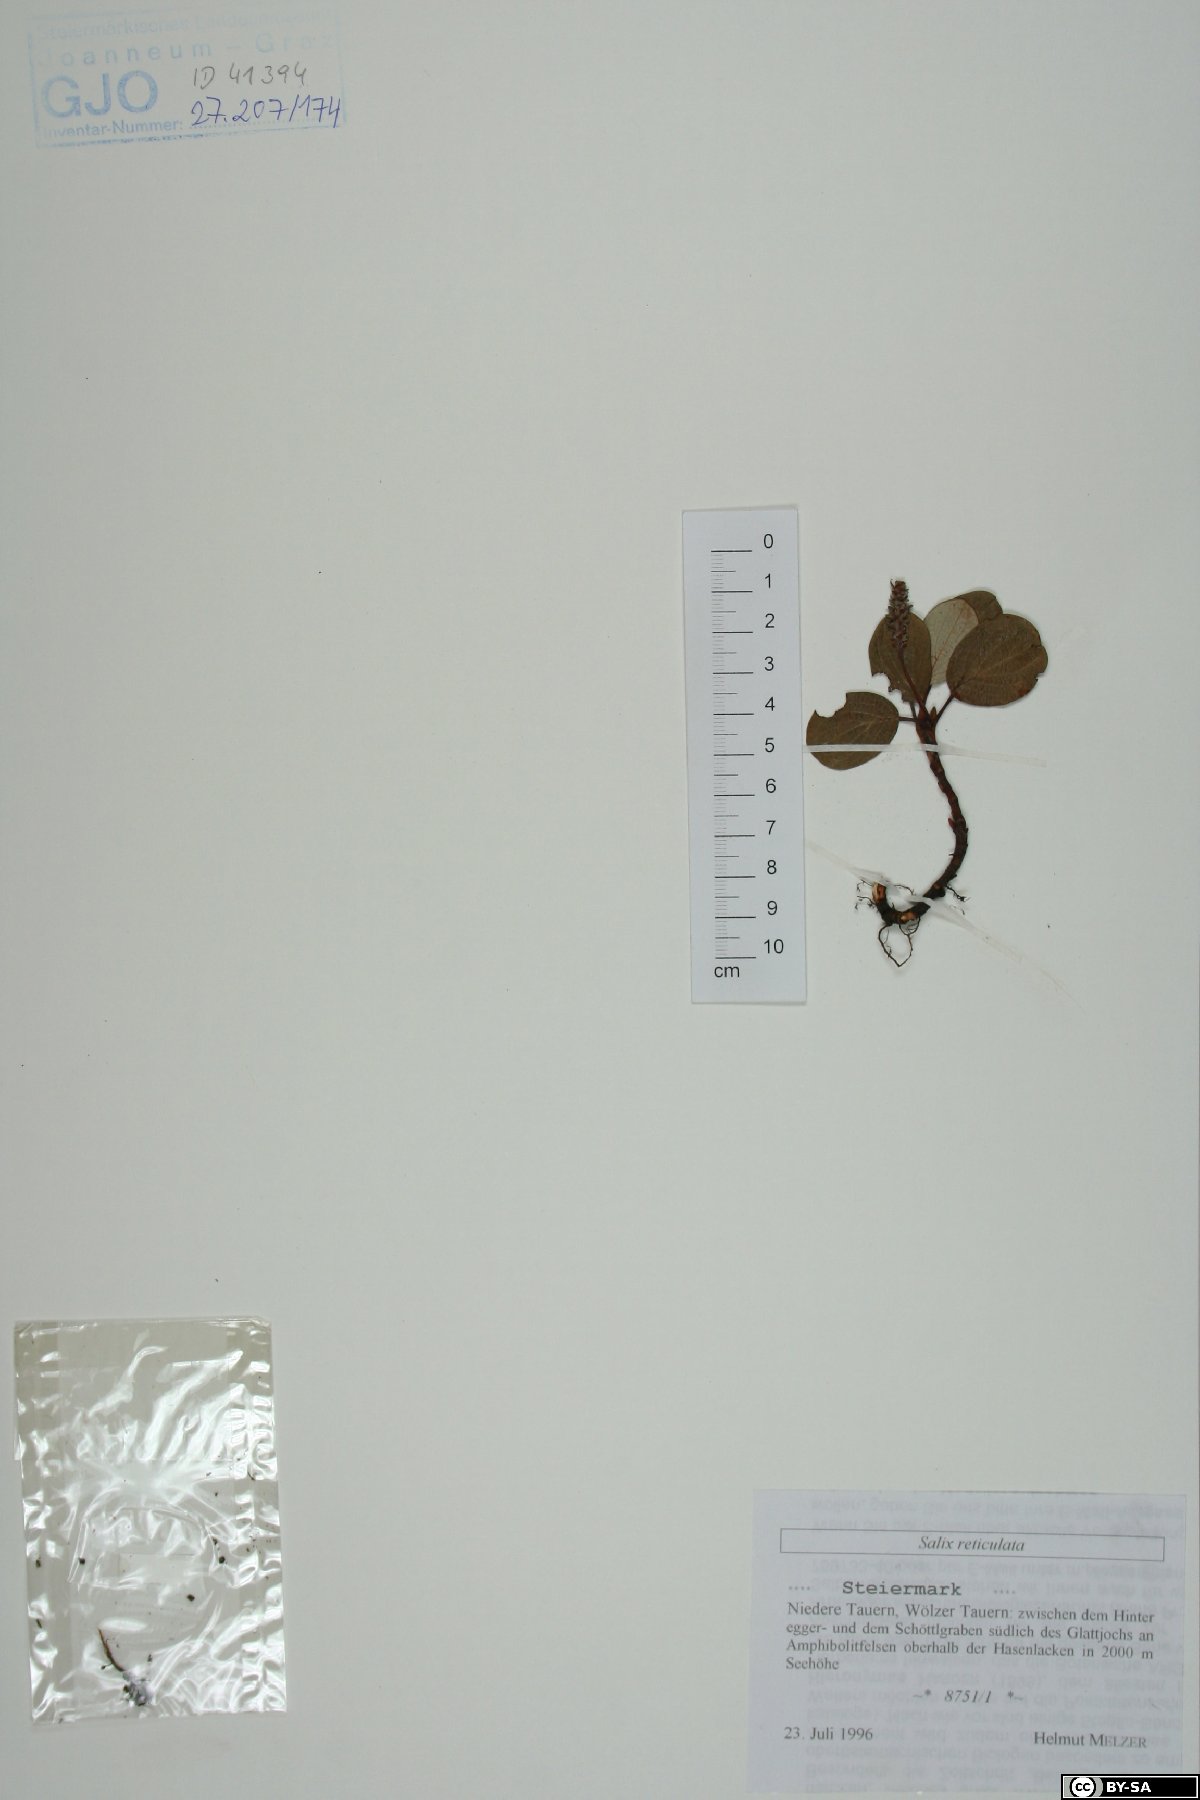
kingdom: Plantae
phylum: Tracheophyta
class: Magnoliopsida
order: Malpighiales
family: Salicaceae
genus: Salix
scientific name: Salix reticulata
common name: Net-leaved willow
